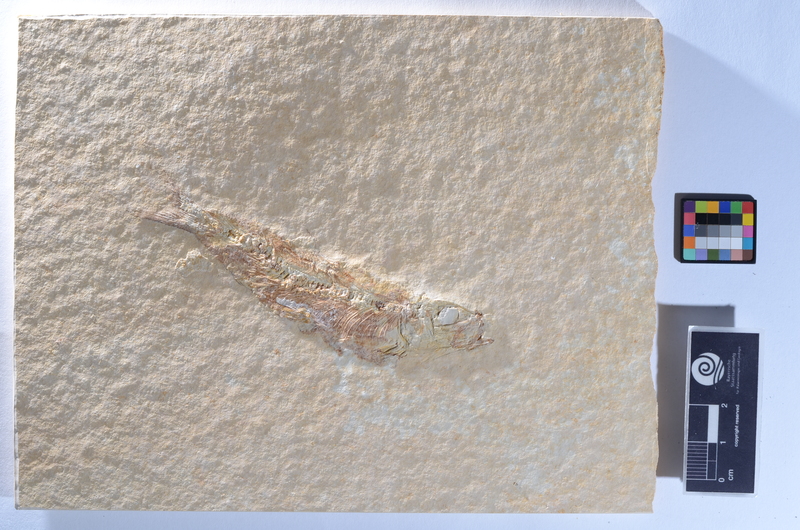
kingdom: Animalia
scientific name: Animalia
